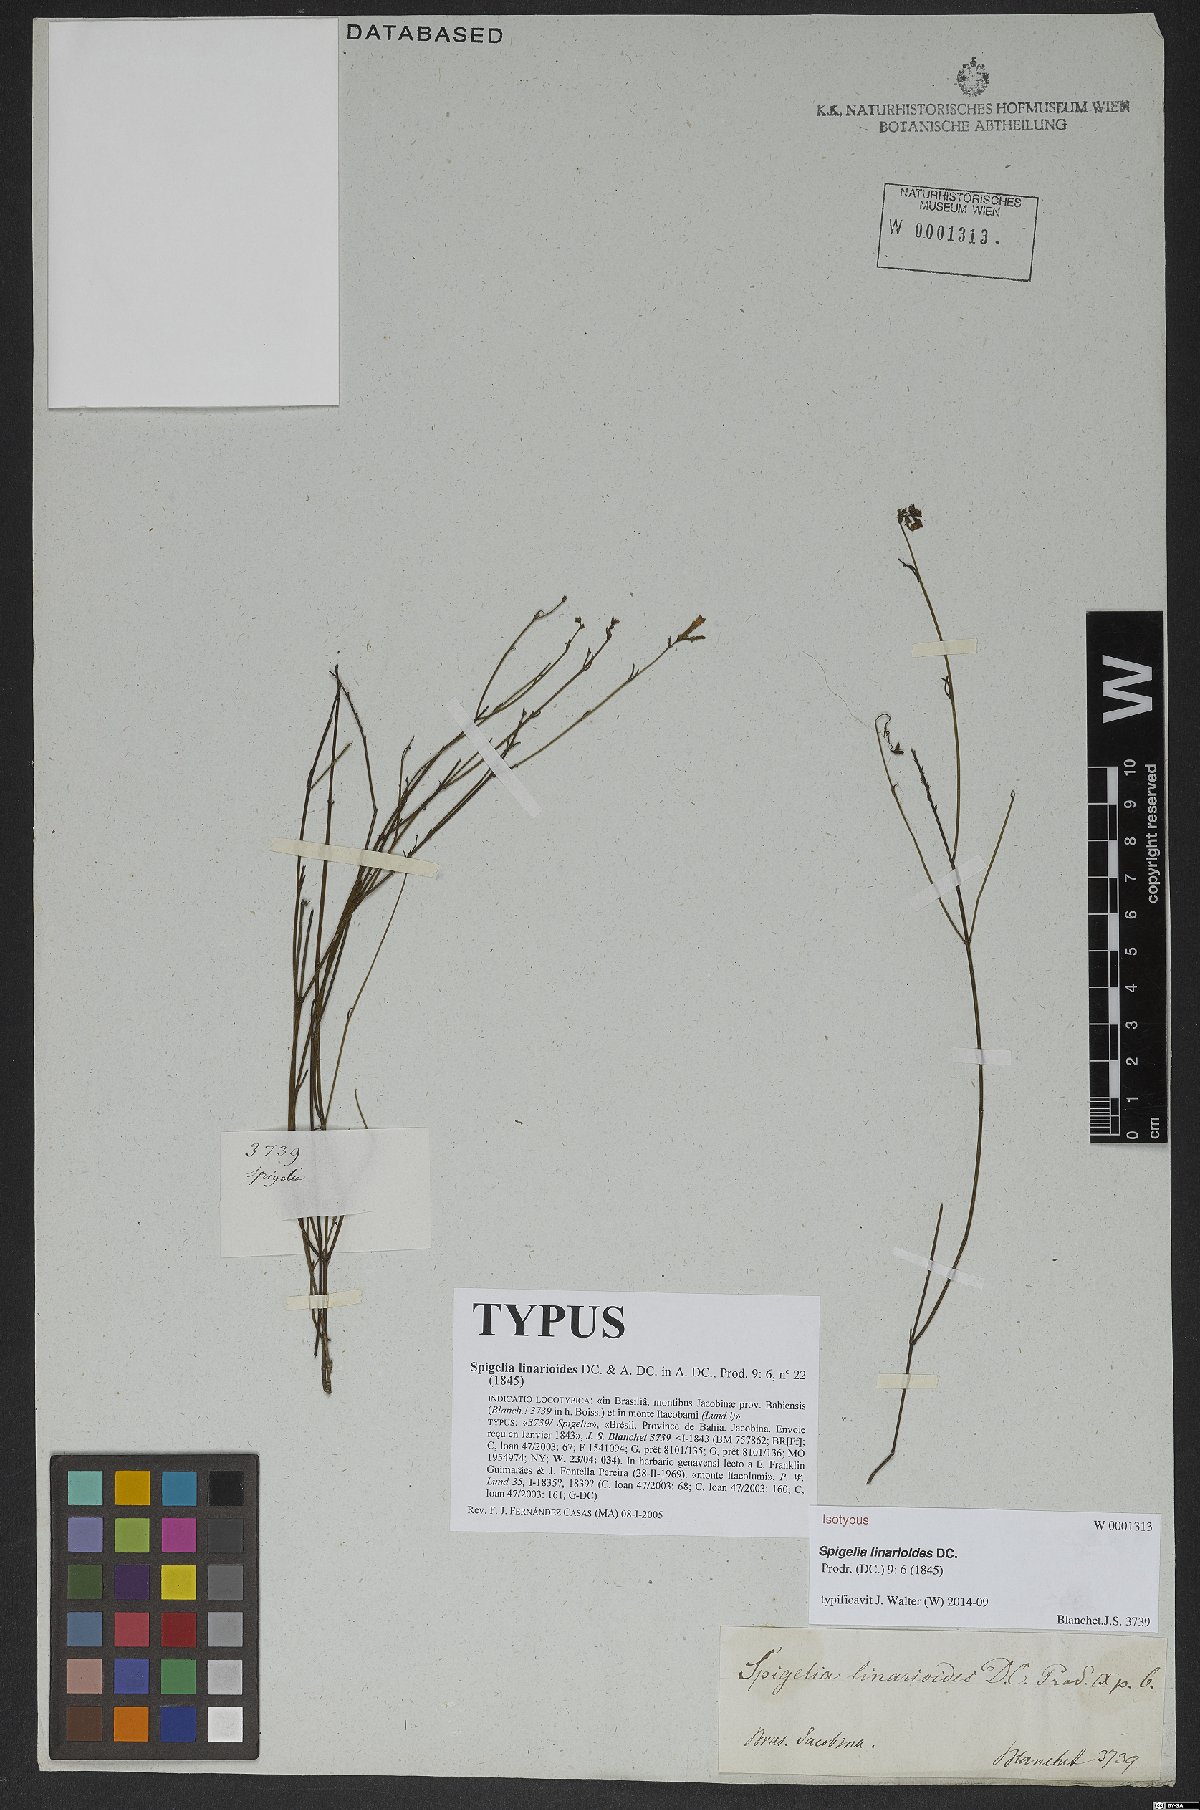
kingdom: Plantae
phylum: Tracheophyta
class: Magnoliopsida
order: Gentianales
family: Loganiaceae
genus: Spigelia
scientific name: Spigelia linarioides
